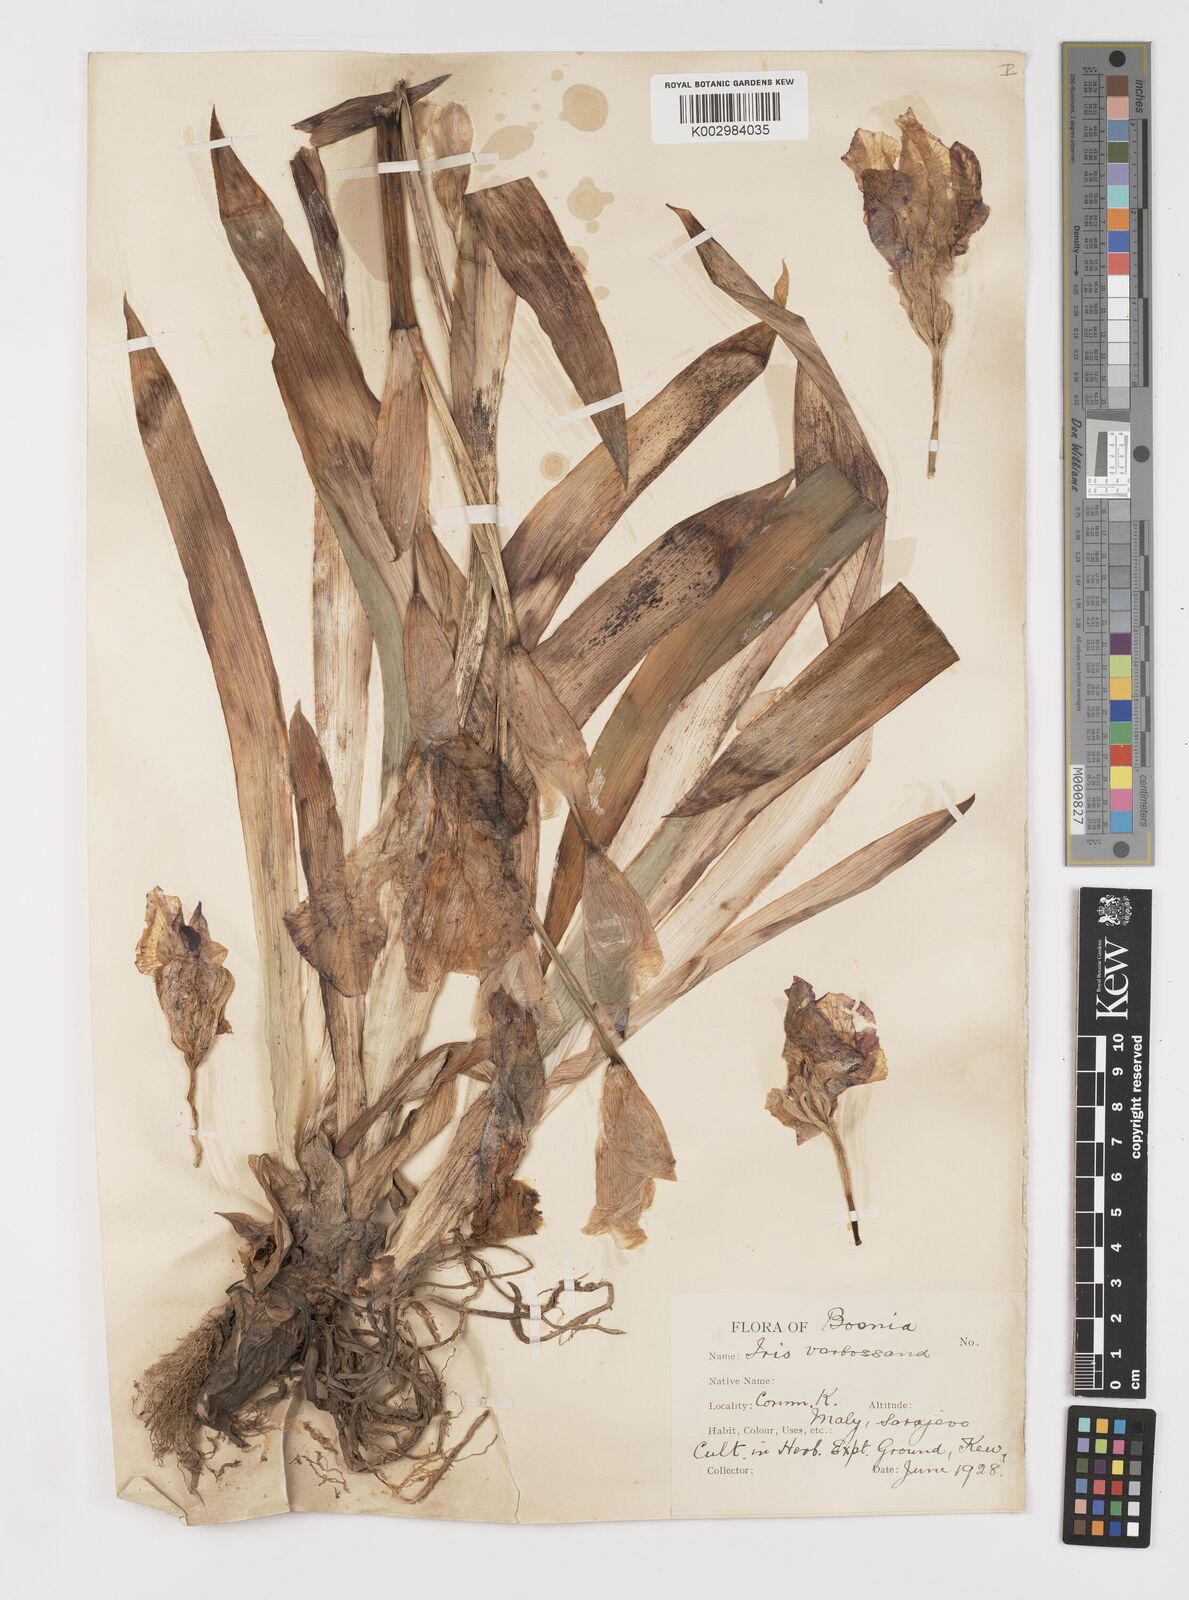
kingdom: Plantae
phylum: Tracheophyta
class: Liliopsida
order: Asparagales
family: Iridaceae
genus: Iris
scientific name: Iris germanica
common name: German iris
